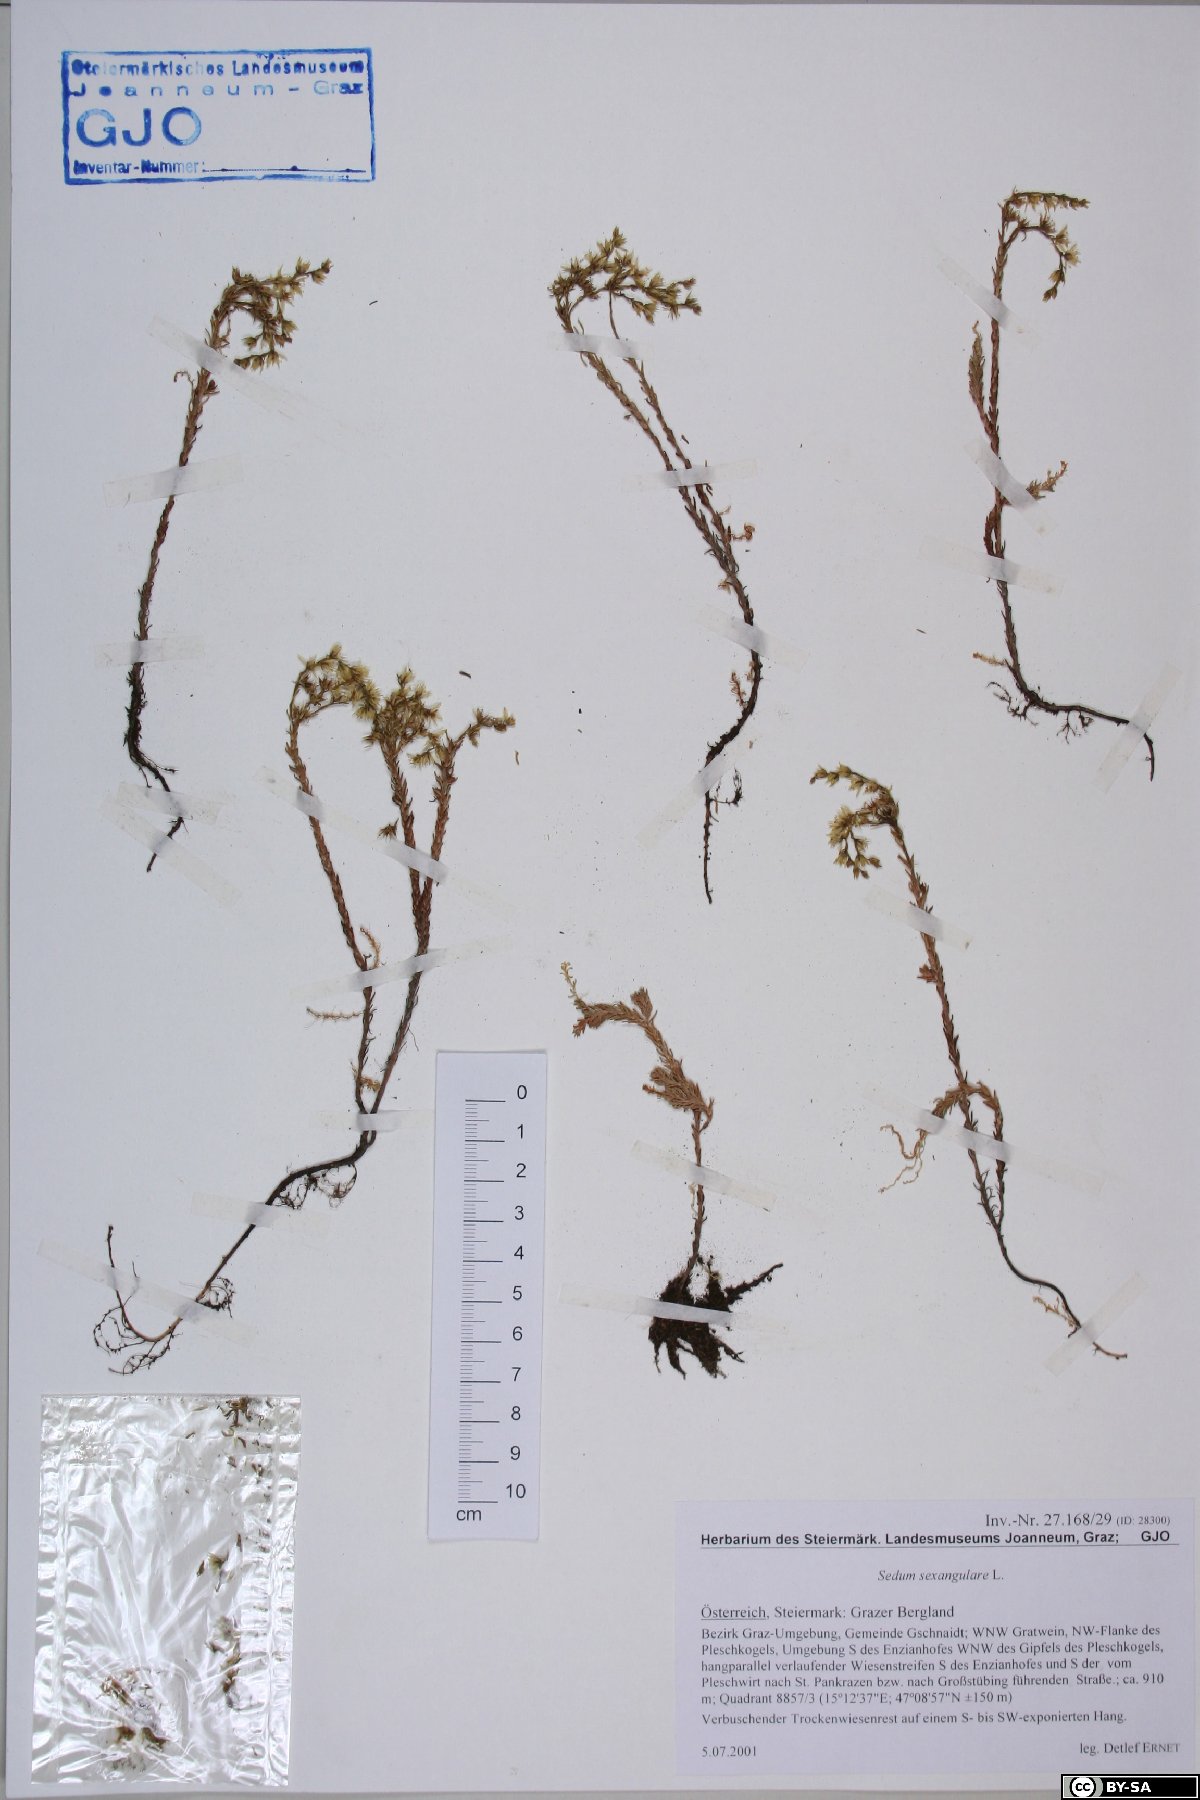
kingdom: Plantae
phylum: Tracheophyta
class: Magnoliopsida
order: Saxifragales
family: Crassulaceae
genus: Sedum
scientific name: Sedum sexangulare
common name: Tasteless stonecrop
